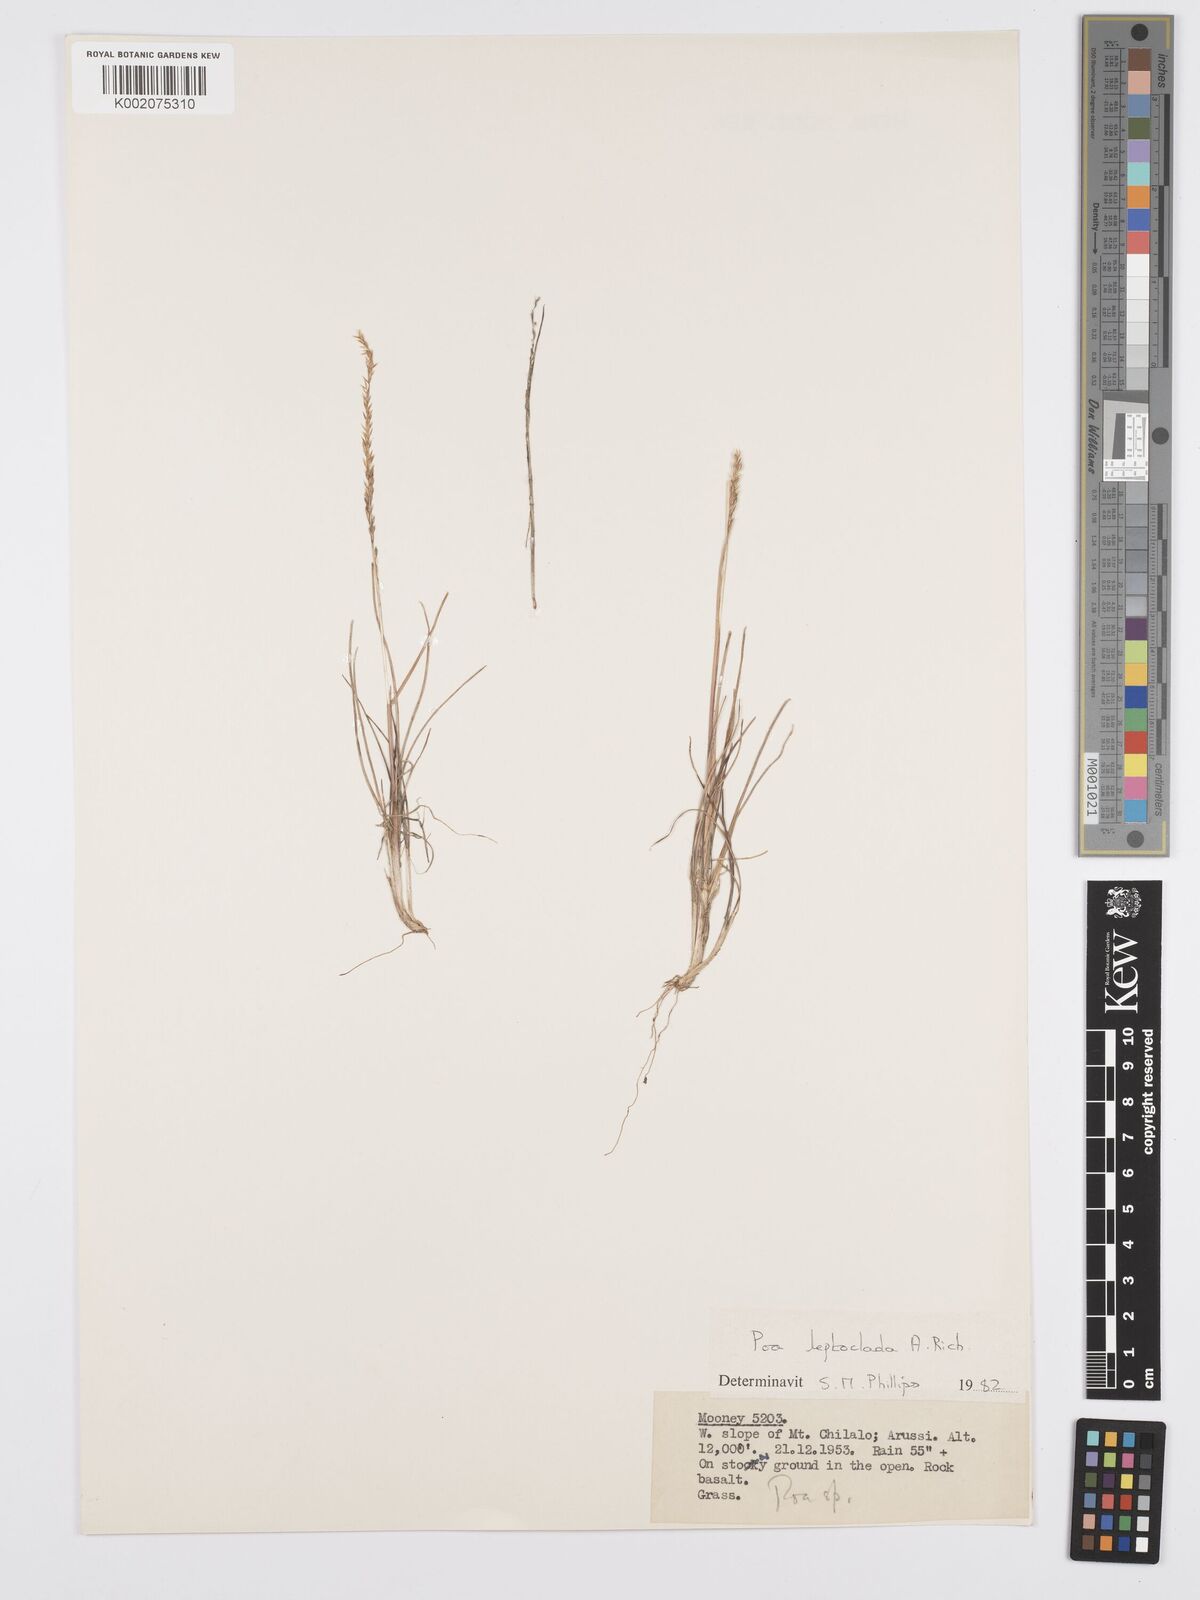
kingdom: Plantae
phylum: Tracheophyta
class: Liliopsida
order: Poales
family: Poaceae
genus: Poa
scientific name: Poa leptoclada
